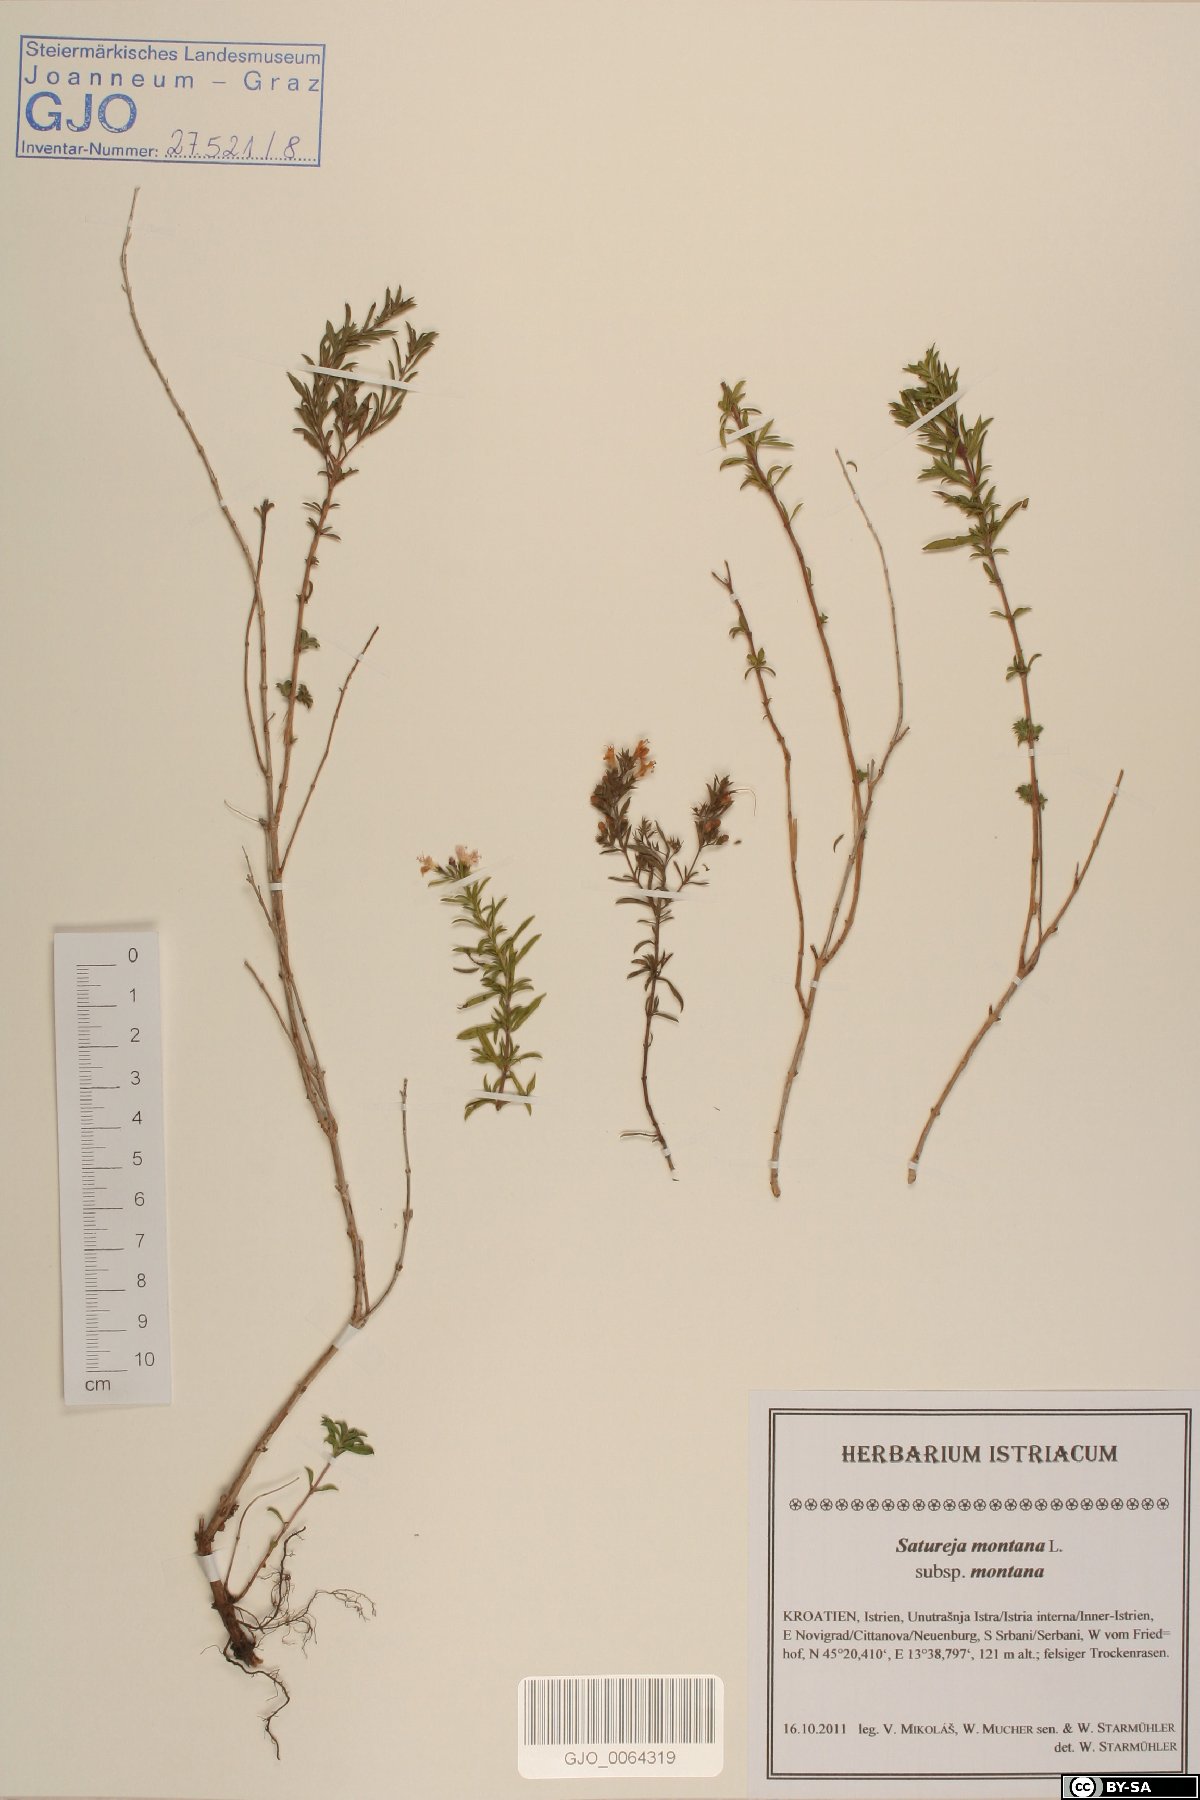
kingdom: Plantae
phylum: Tracheophyta
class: Magnoliopsida
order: Lamiales
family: Lamiaceae
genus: Satureja
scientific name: Satureja montana
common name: Winter savory
